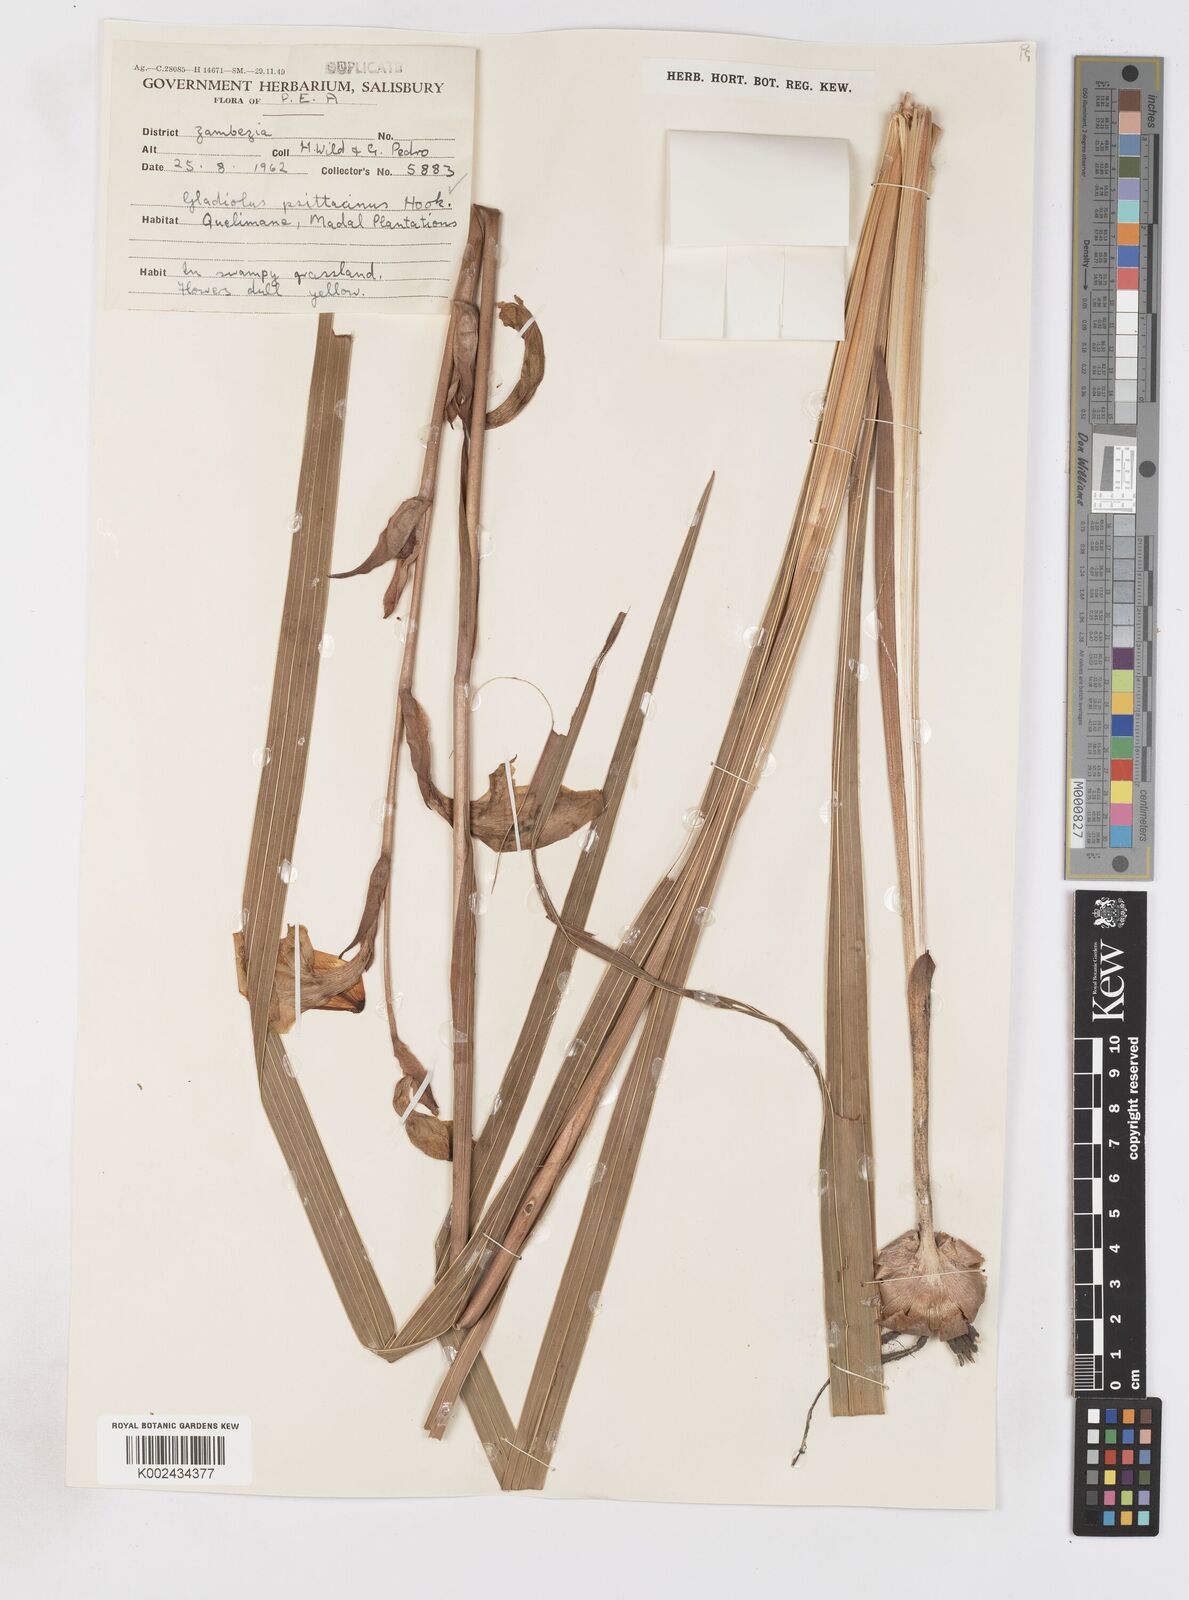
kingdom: Plantae
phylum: Tracheophyta
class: Liliopsida
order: Asparagales
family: Iridaceae
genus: Gladiolus
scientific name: Gladiolus dalenii
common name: Cornflag
